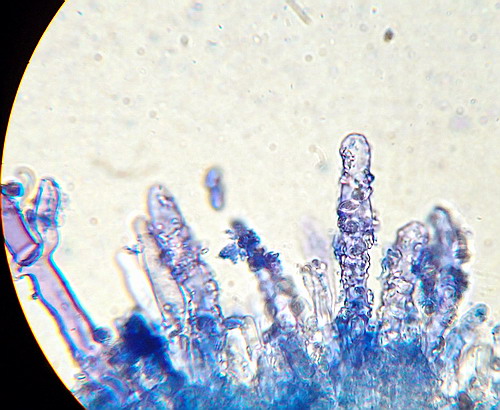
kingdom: Fungi
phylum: Basidiomycota
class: Agaricomycetes
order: Polyporales
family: Hyphodermataceae
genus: Hyphoderma
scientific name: Hyphoderma setigerum
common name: håret kalkskind
